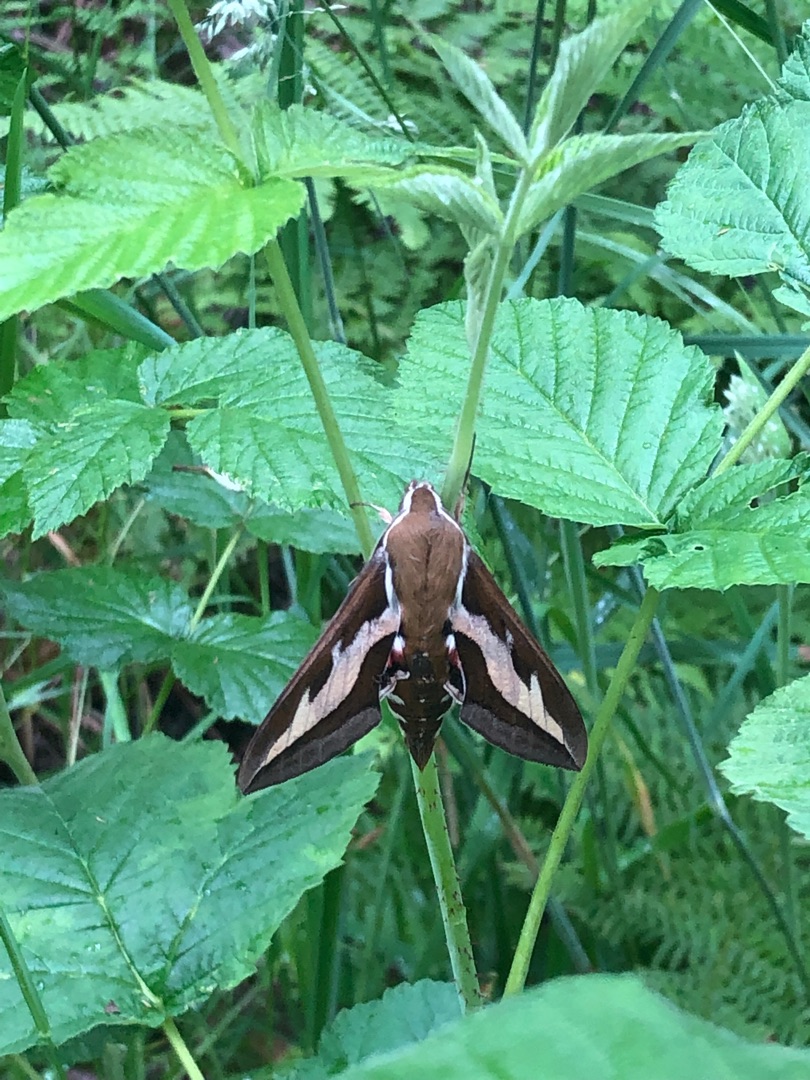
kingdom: Animalia
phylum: Arthropoda
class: Insecta
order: Lepidoptera
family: Sphingidae
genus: Hyles
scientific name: Hyles gallii
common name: Snerresværmer
